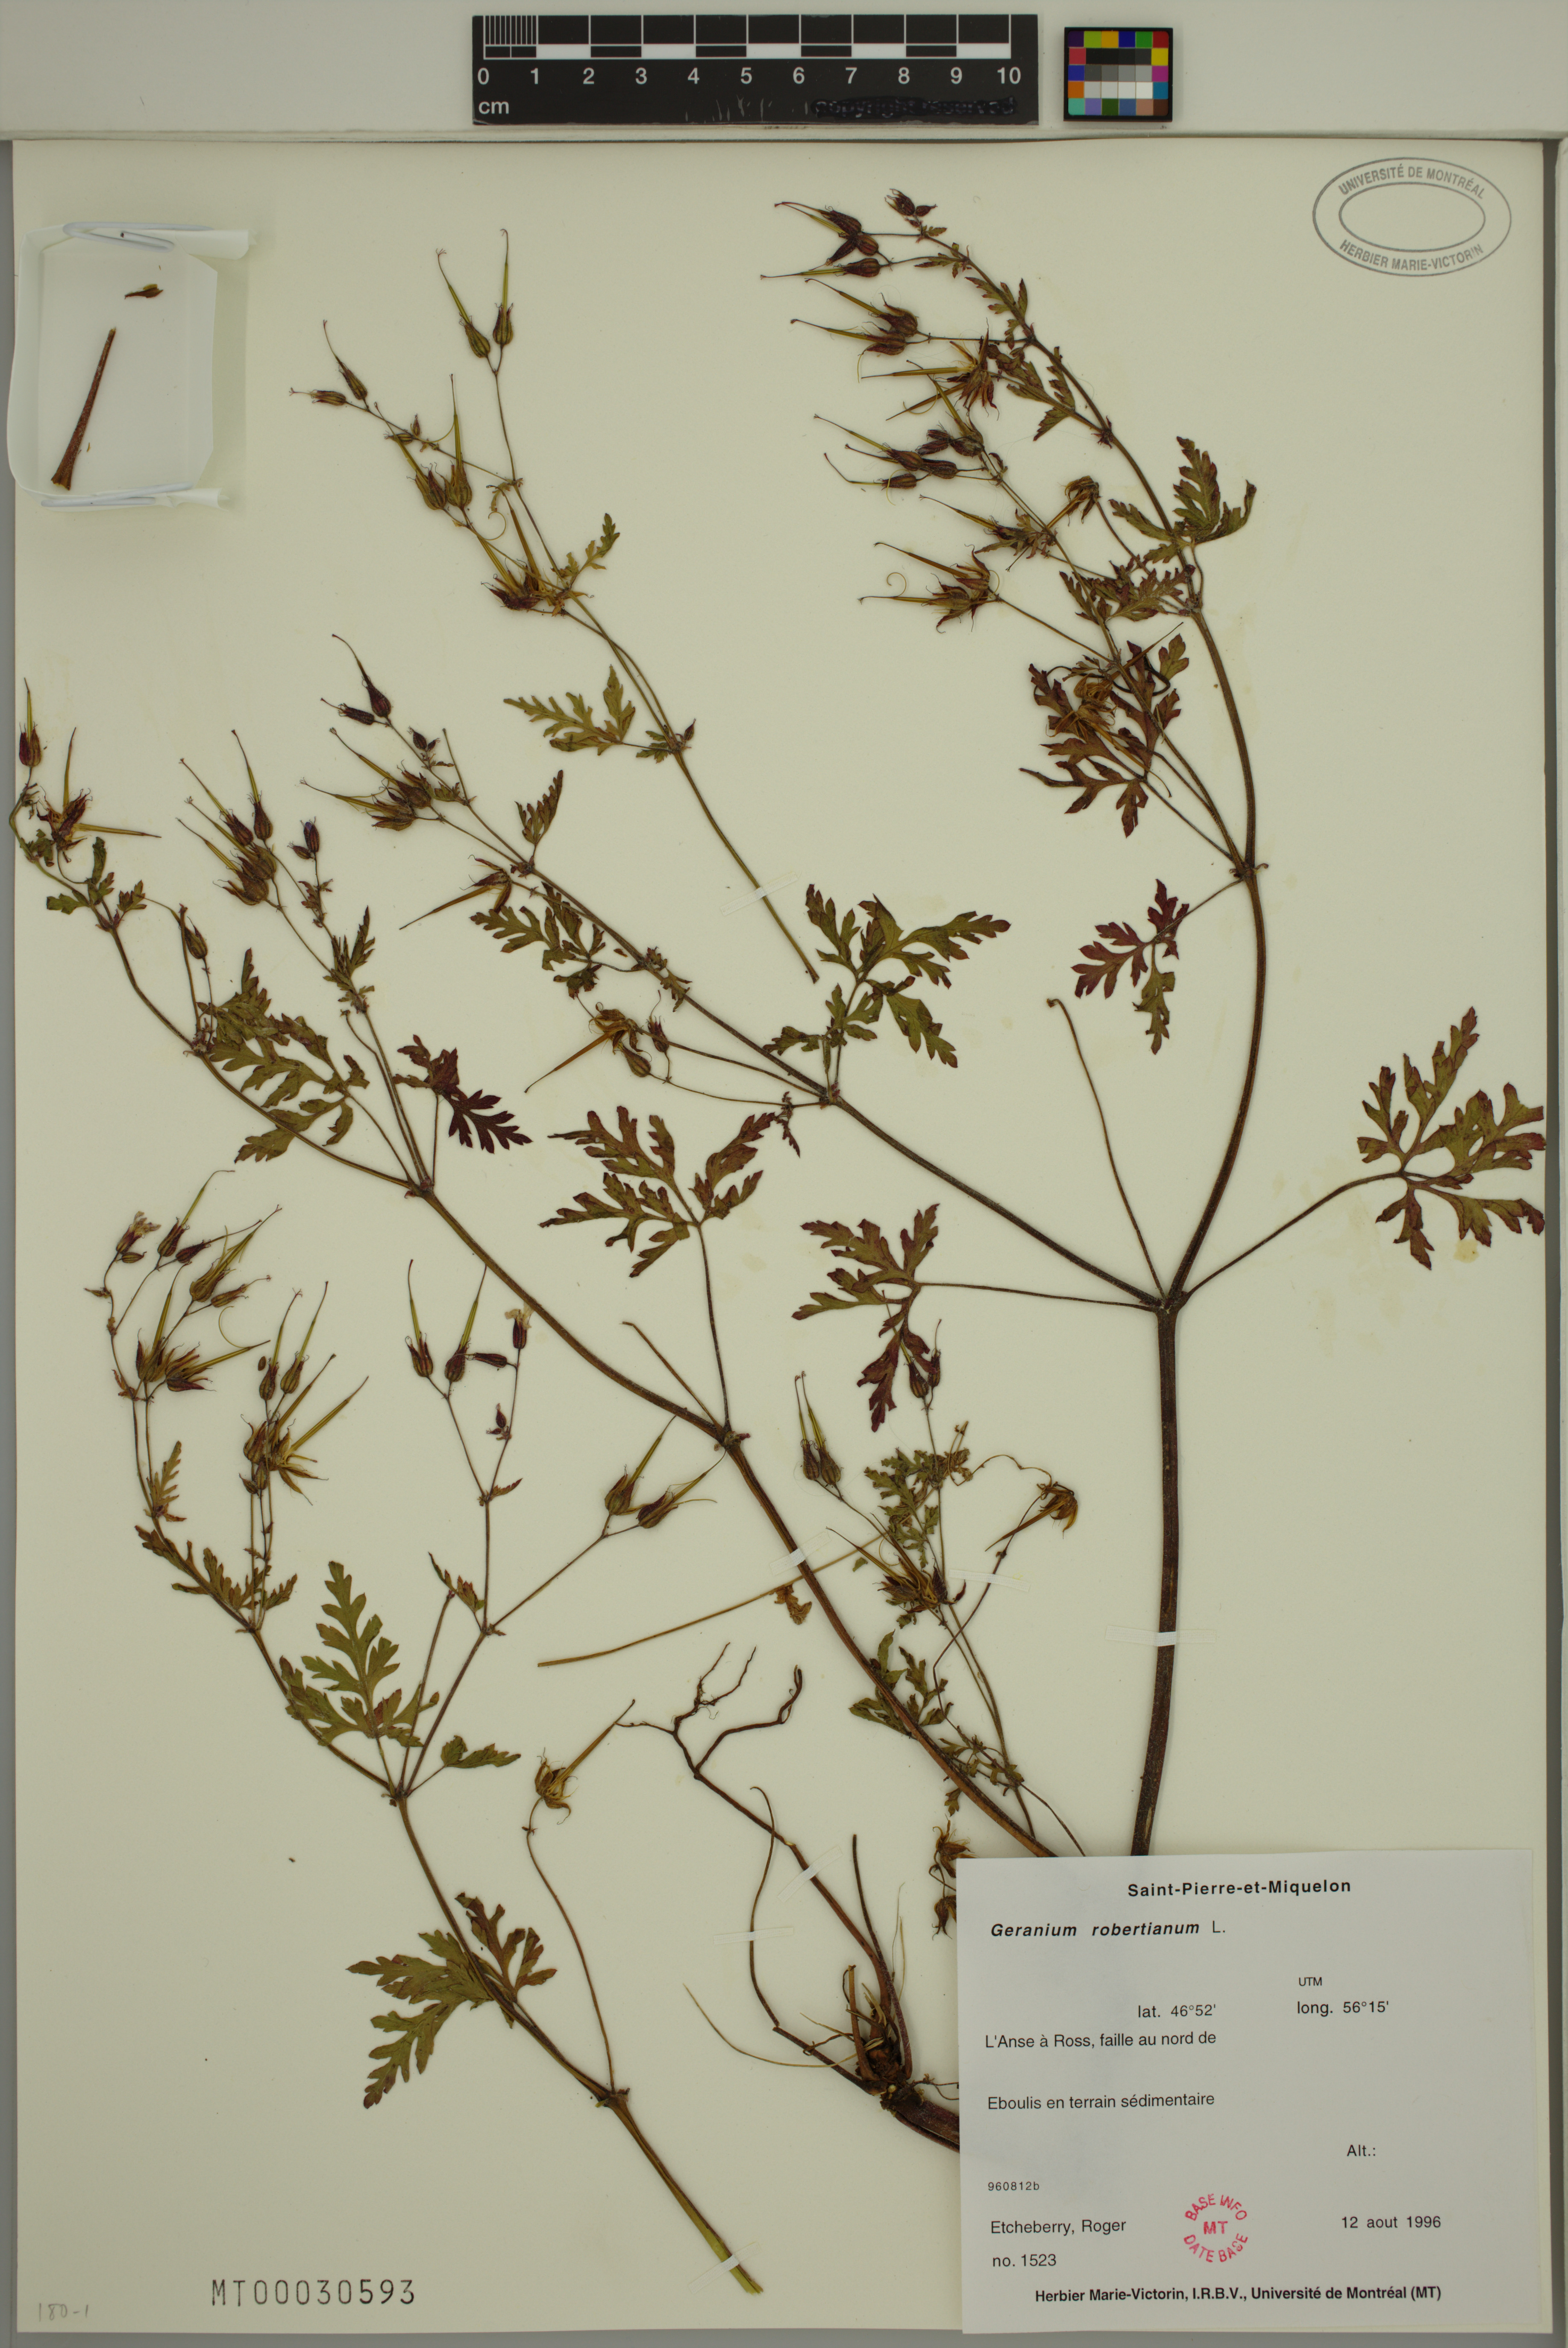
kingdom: Plantae
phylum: Tracheophyta
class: Magnoliopsida
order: Geraniales
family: Geraniaceae
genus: Geranium
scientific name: Geranium robertianum
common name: Herb-robert
